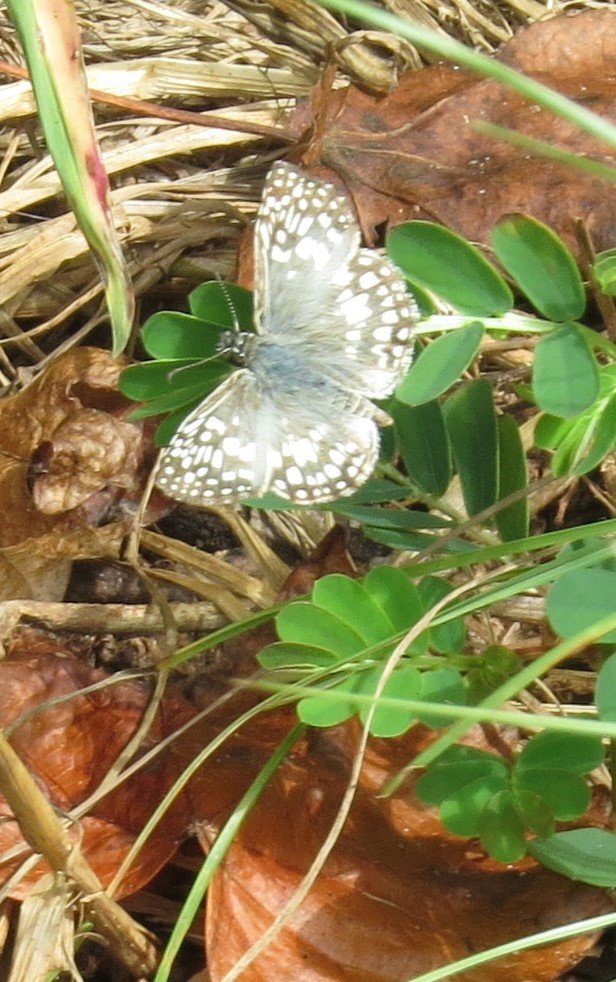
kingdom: Animalia
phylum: Arthropoda
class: Insecta
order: Lepidoptera
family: Hesperiidae
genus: Pyrgus
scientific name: Pyrgus oileus
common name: Tropical Checkered-Skipper
